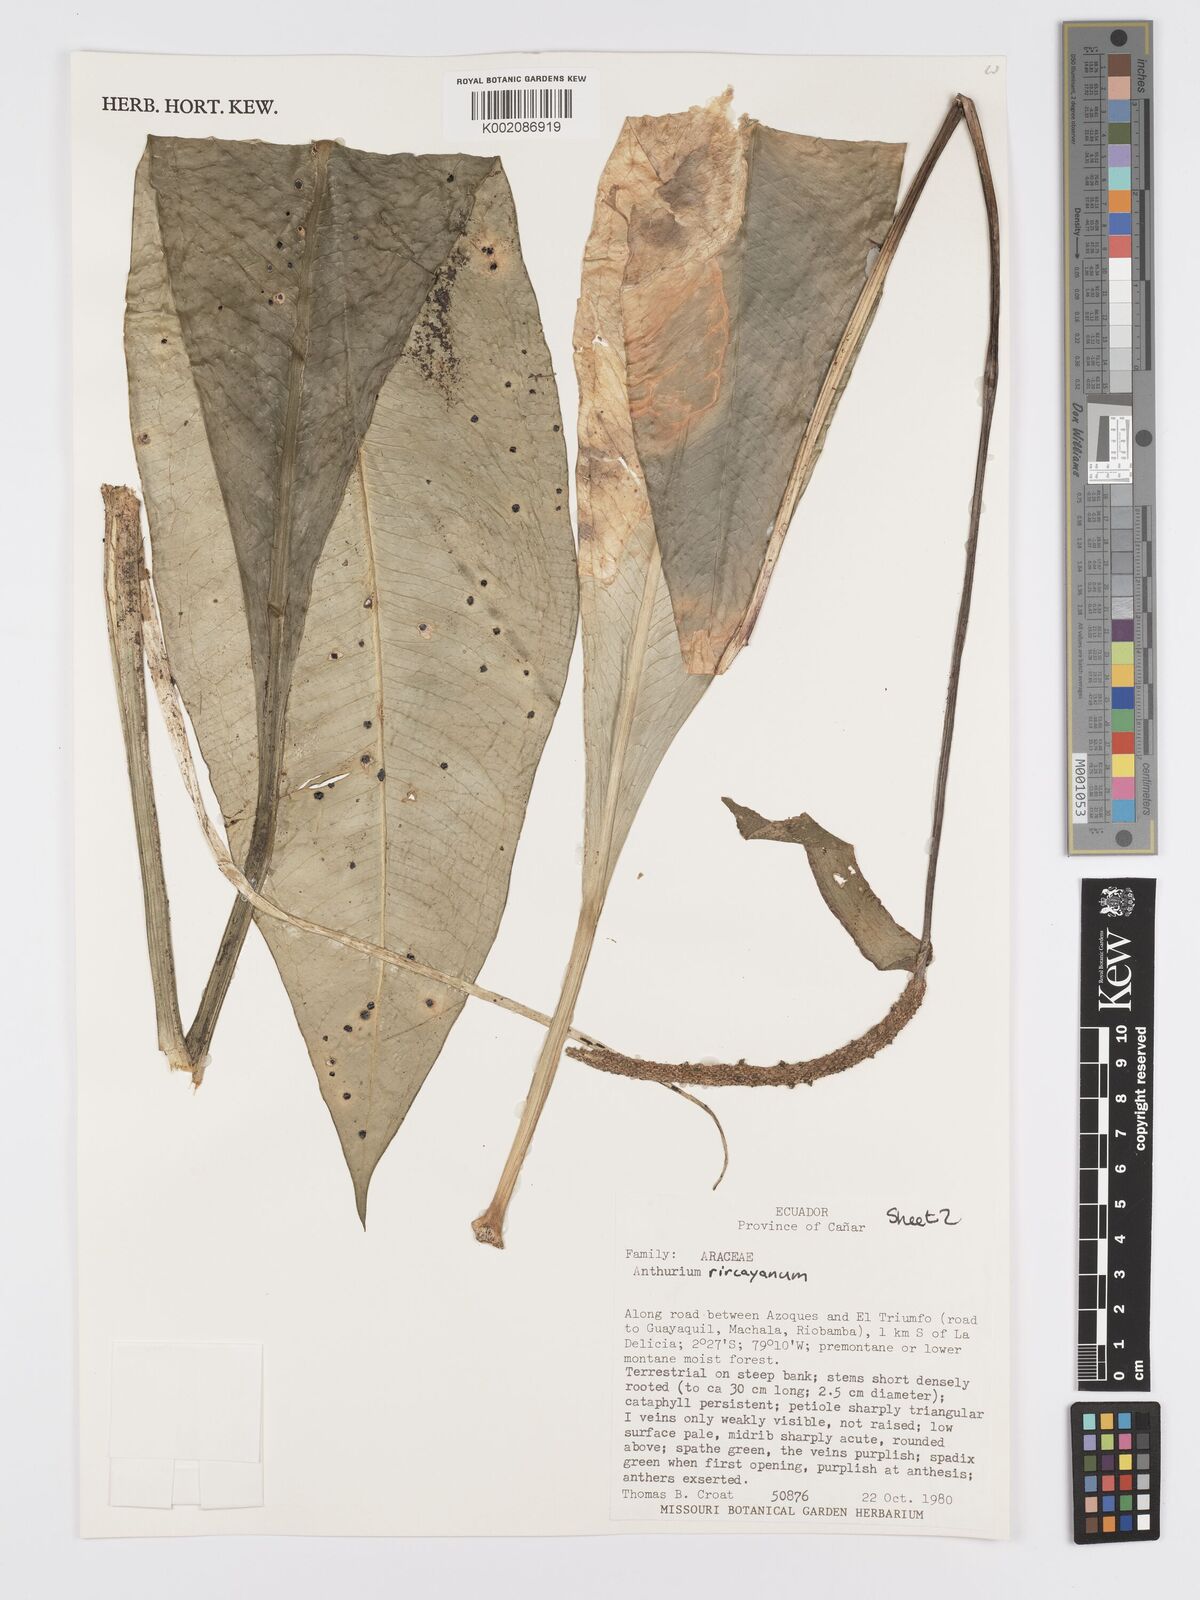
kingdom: Plantae
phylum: Tracheophyta
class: Liliopsida
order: Alismatales
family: Araceae
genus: Anthurium
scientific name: Anthurium napaeum
